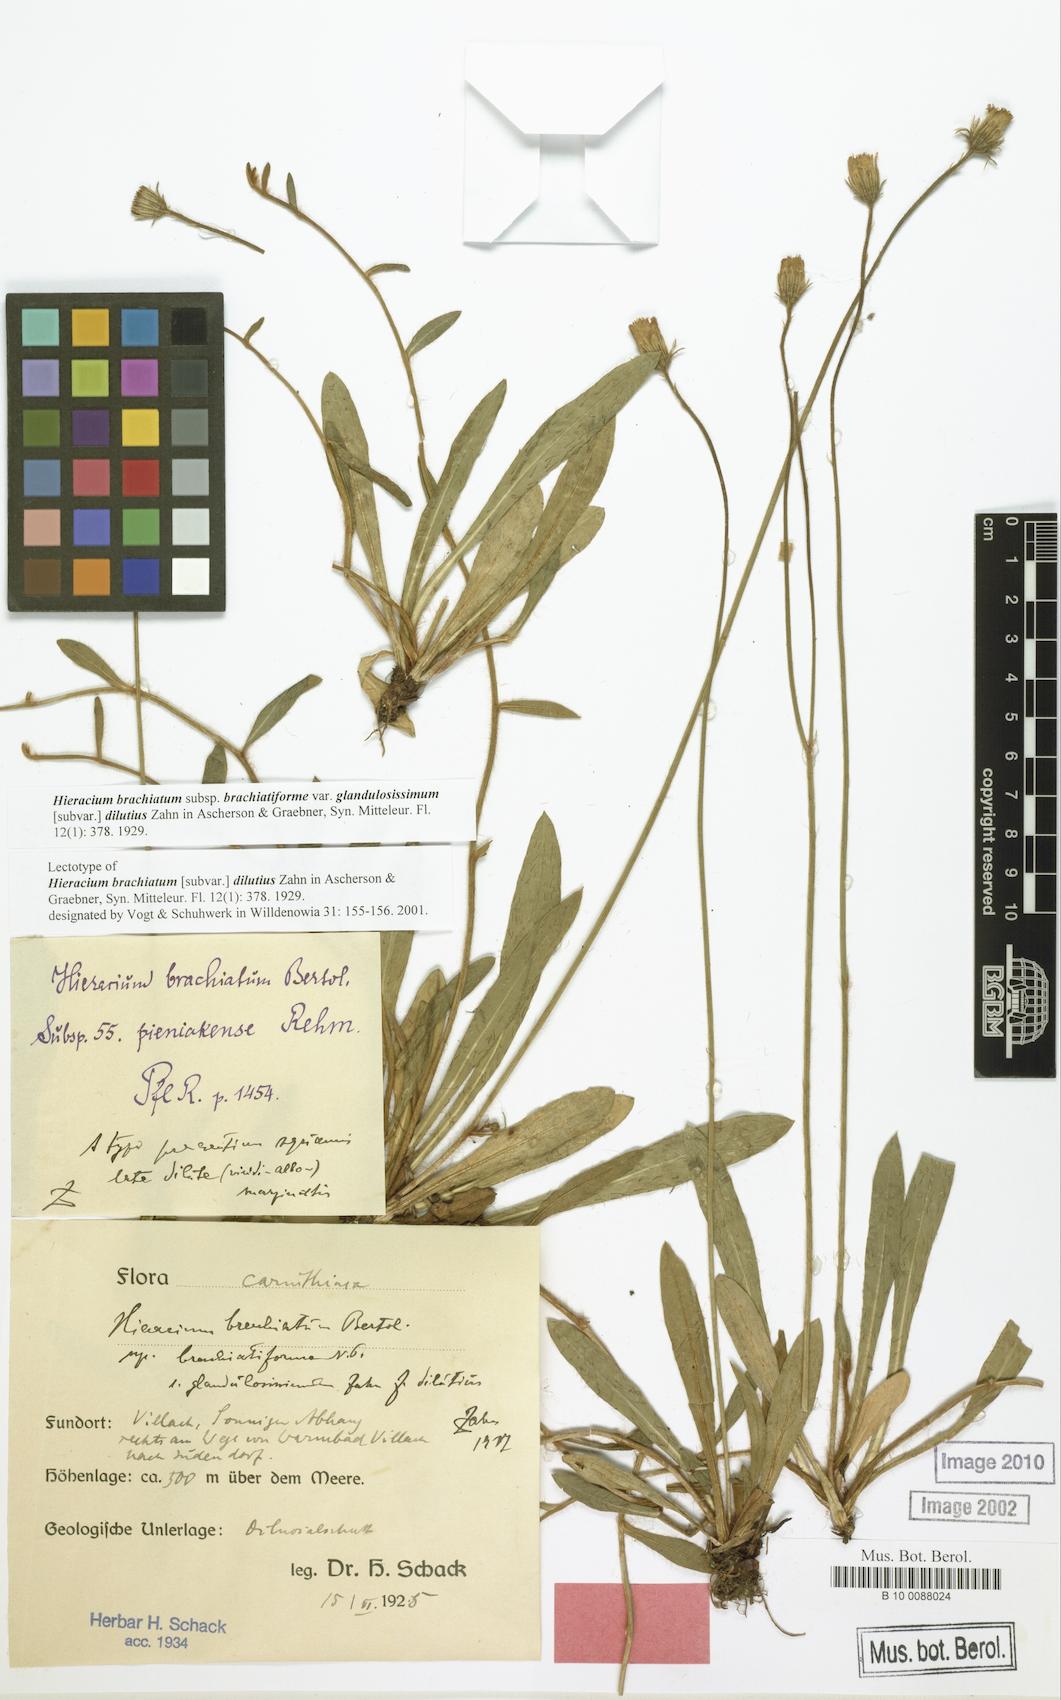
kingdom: Plantae
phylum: Tracheophyta
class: Magnoliopsida
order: Asterales
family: Asteraceae
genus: Pilosella
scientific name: Pilosella acutifolia
